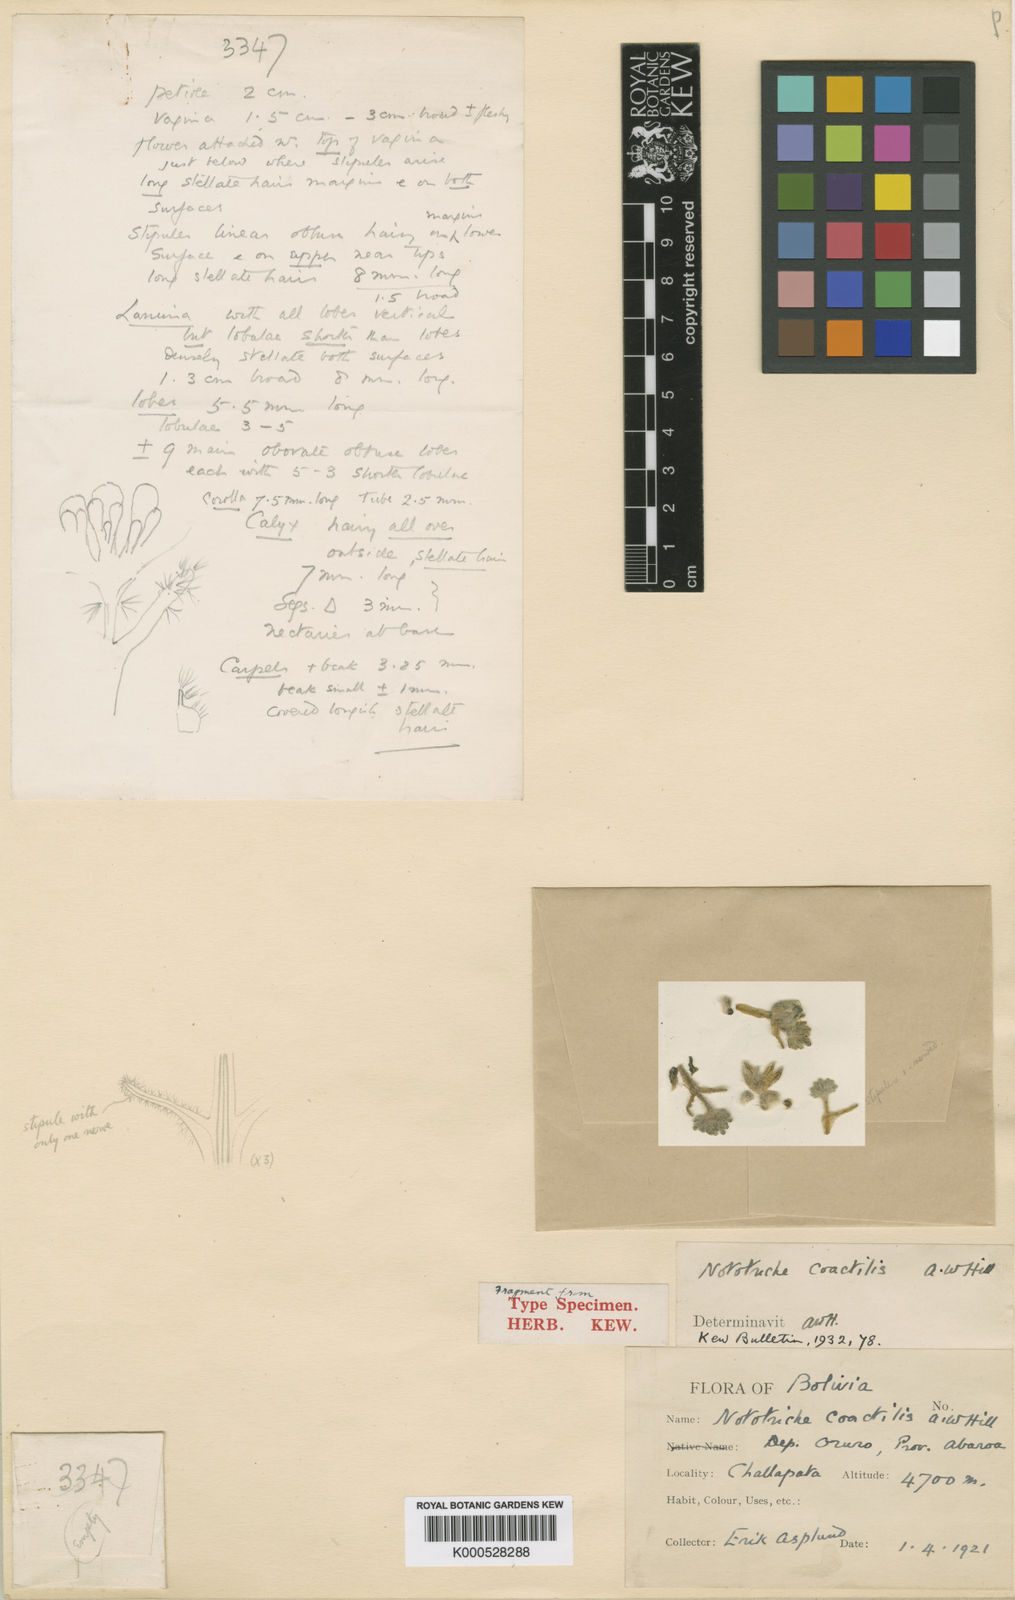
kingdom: Plantae
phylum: Tracheophyta
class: Magnoliopsida
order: Malvales
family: Malvaceae
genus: Nototriche
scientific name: Nototriche coactilis
